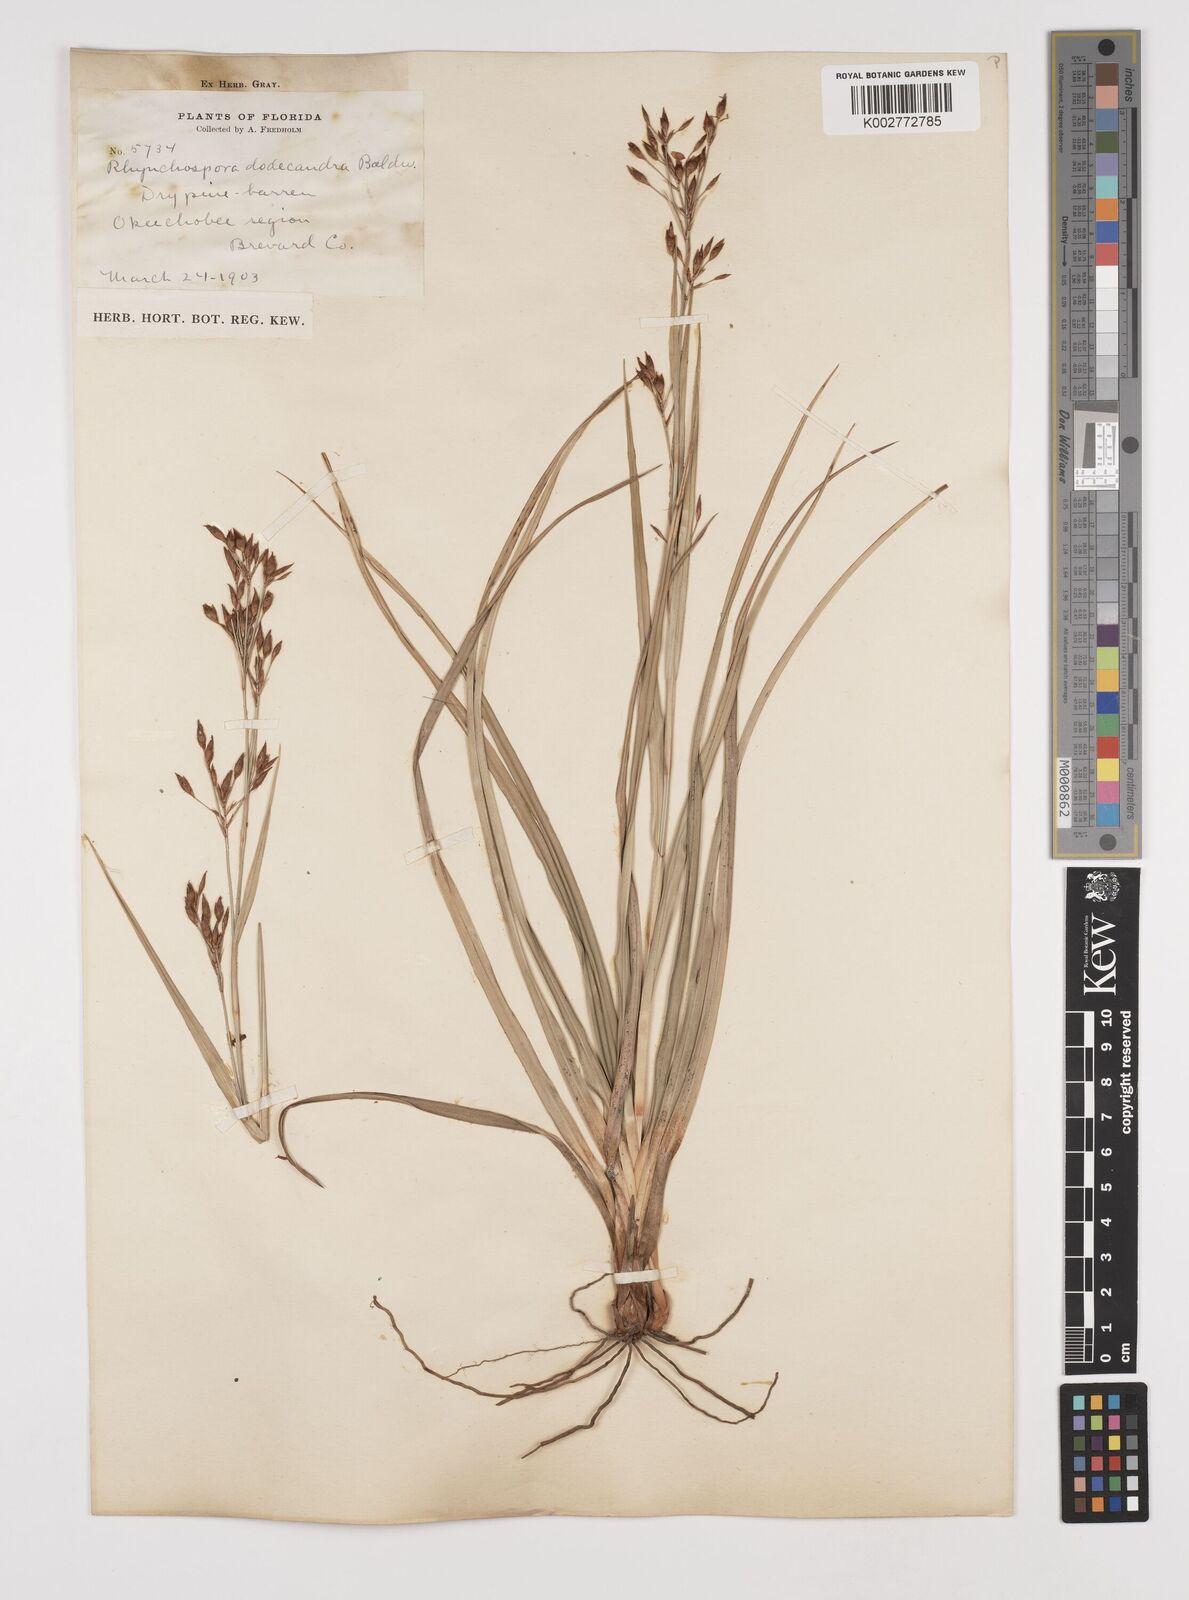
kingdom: Plantae
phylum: Tracheophyta
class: Liliopsida
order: Poales
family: Cyperaceae
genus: Rhynchospora
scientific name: Rhynchospora megalocarpa
